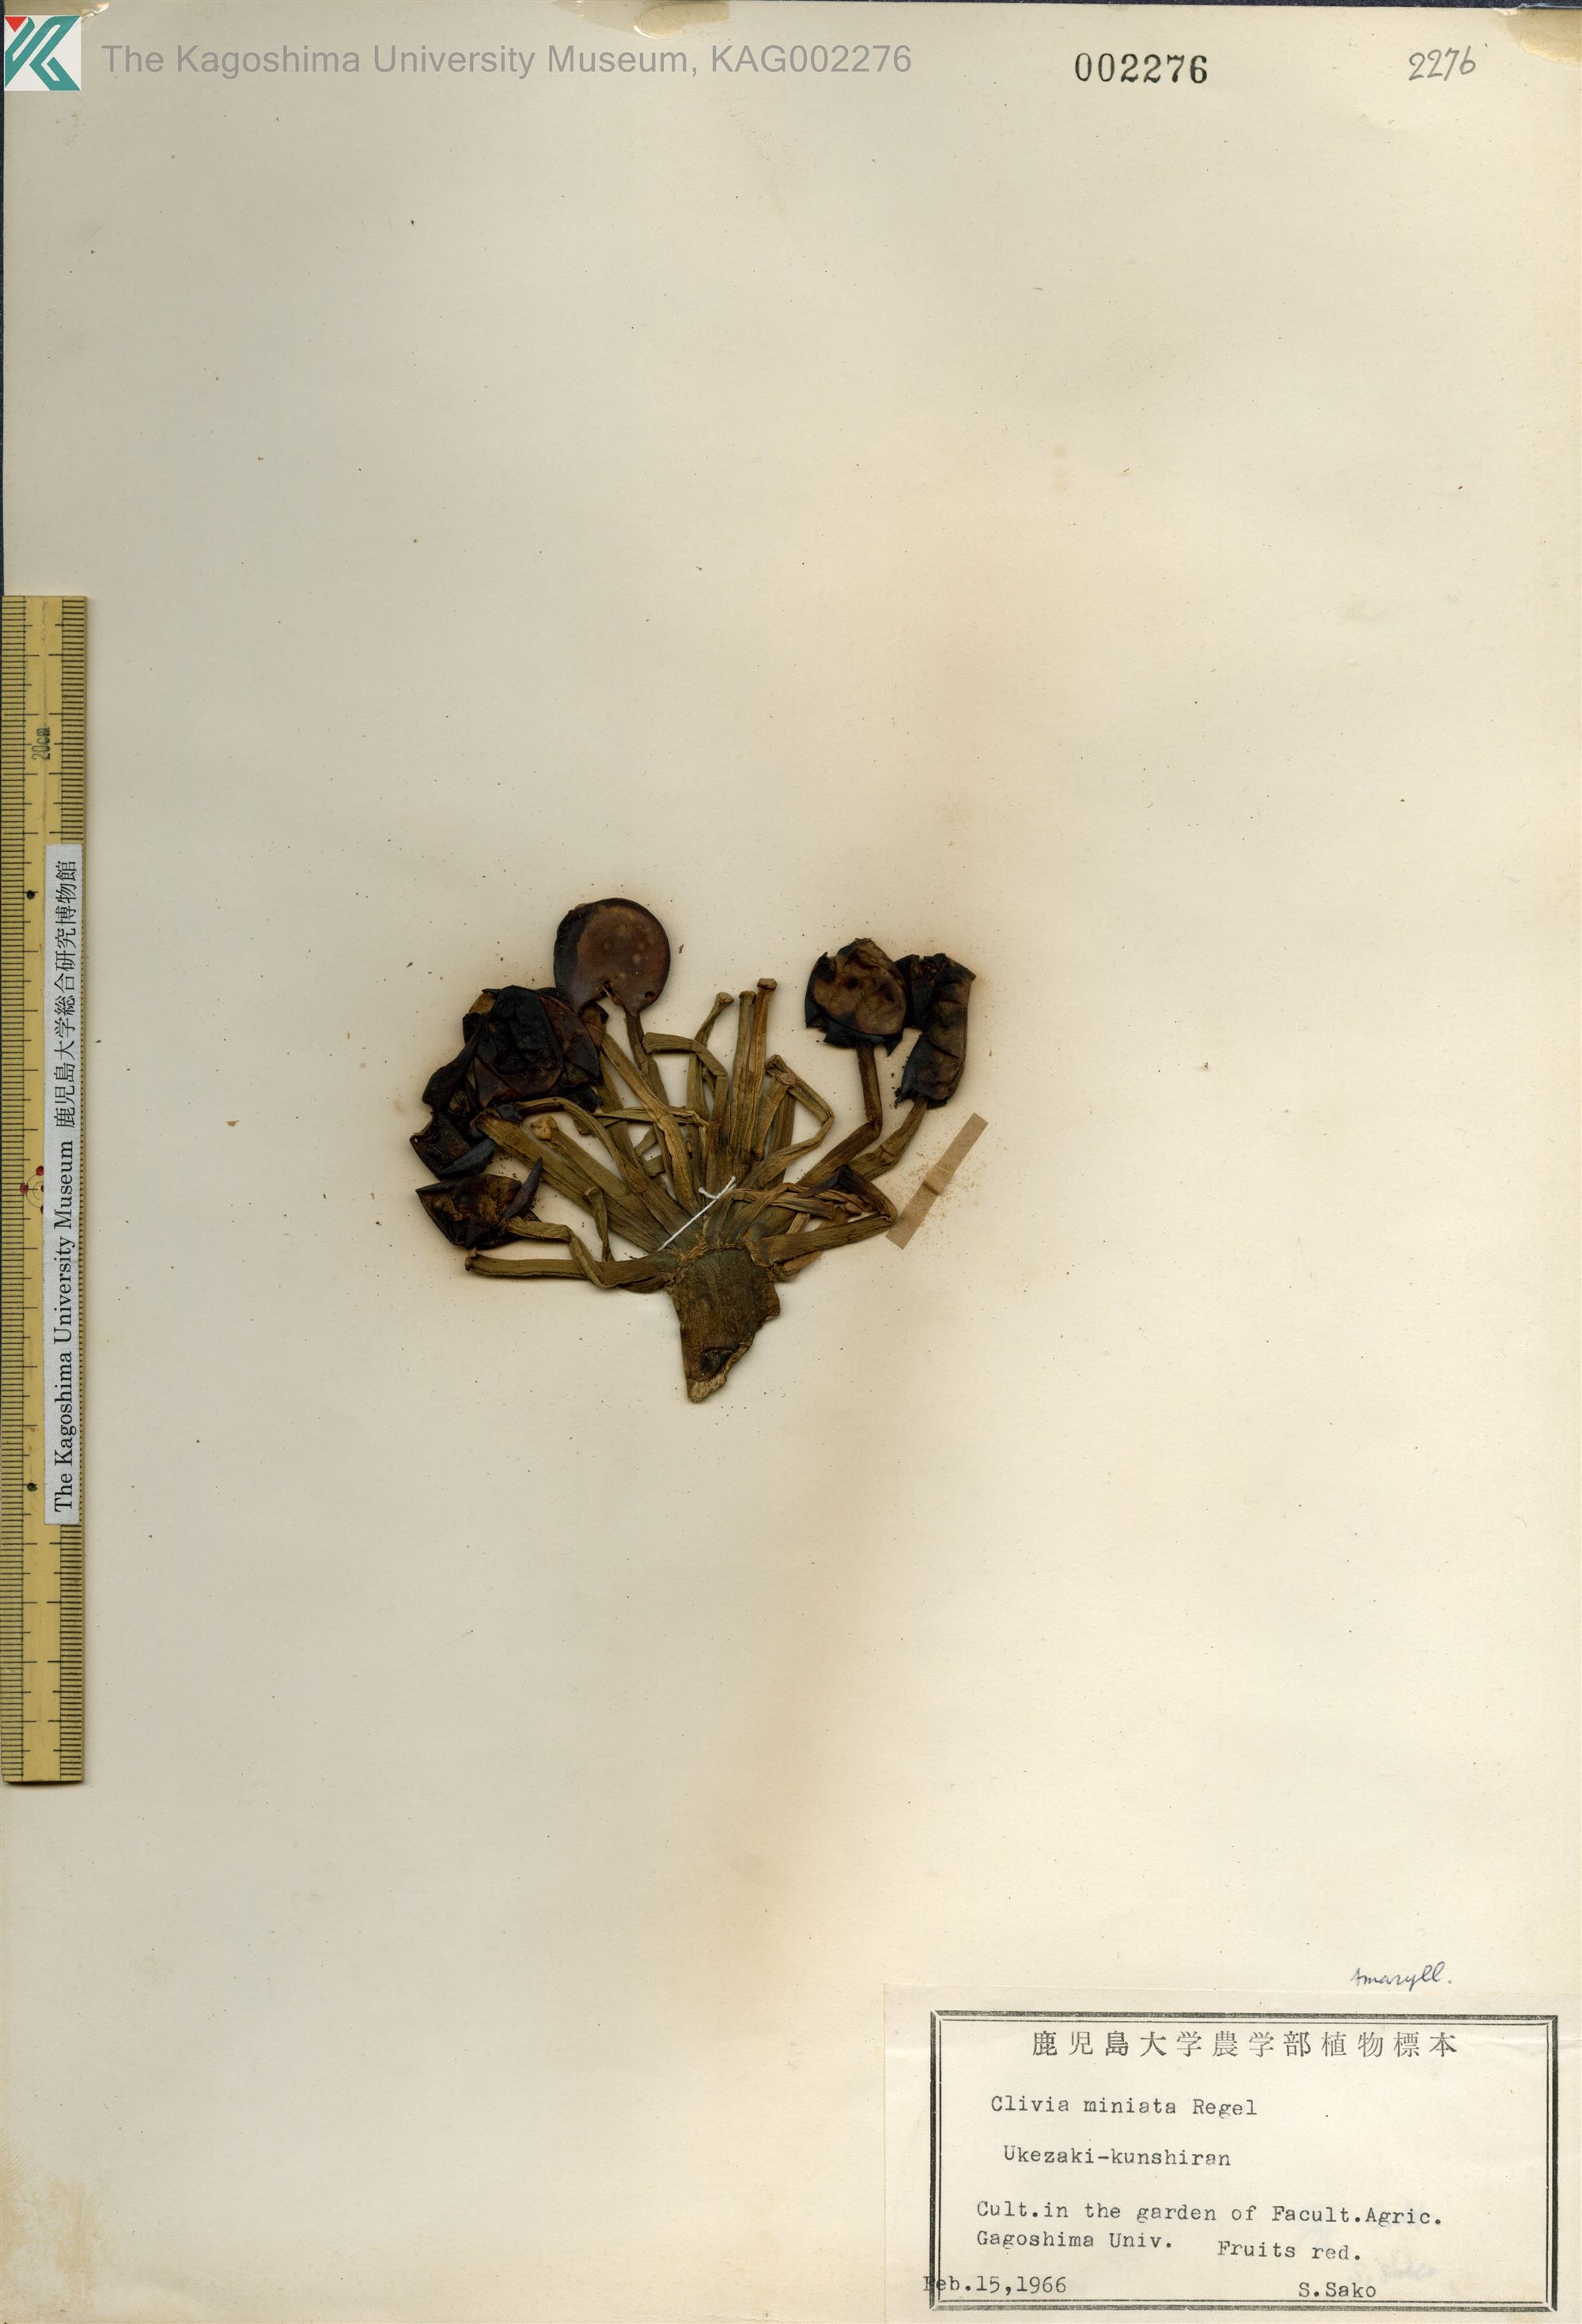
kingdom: Plantae
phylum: Tracheophyta
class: Liliopsida
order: Asparagales
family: Amaryllidaceae
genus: Clivia
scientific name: Clivia miniata
